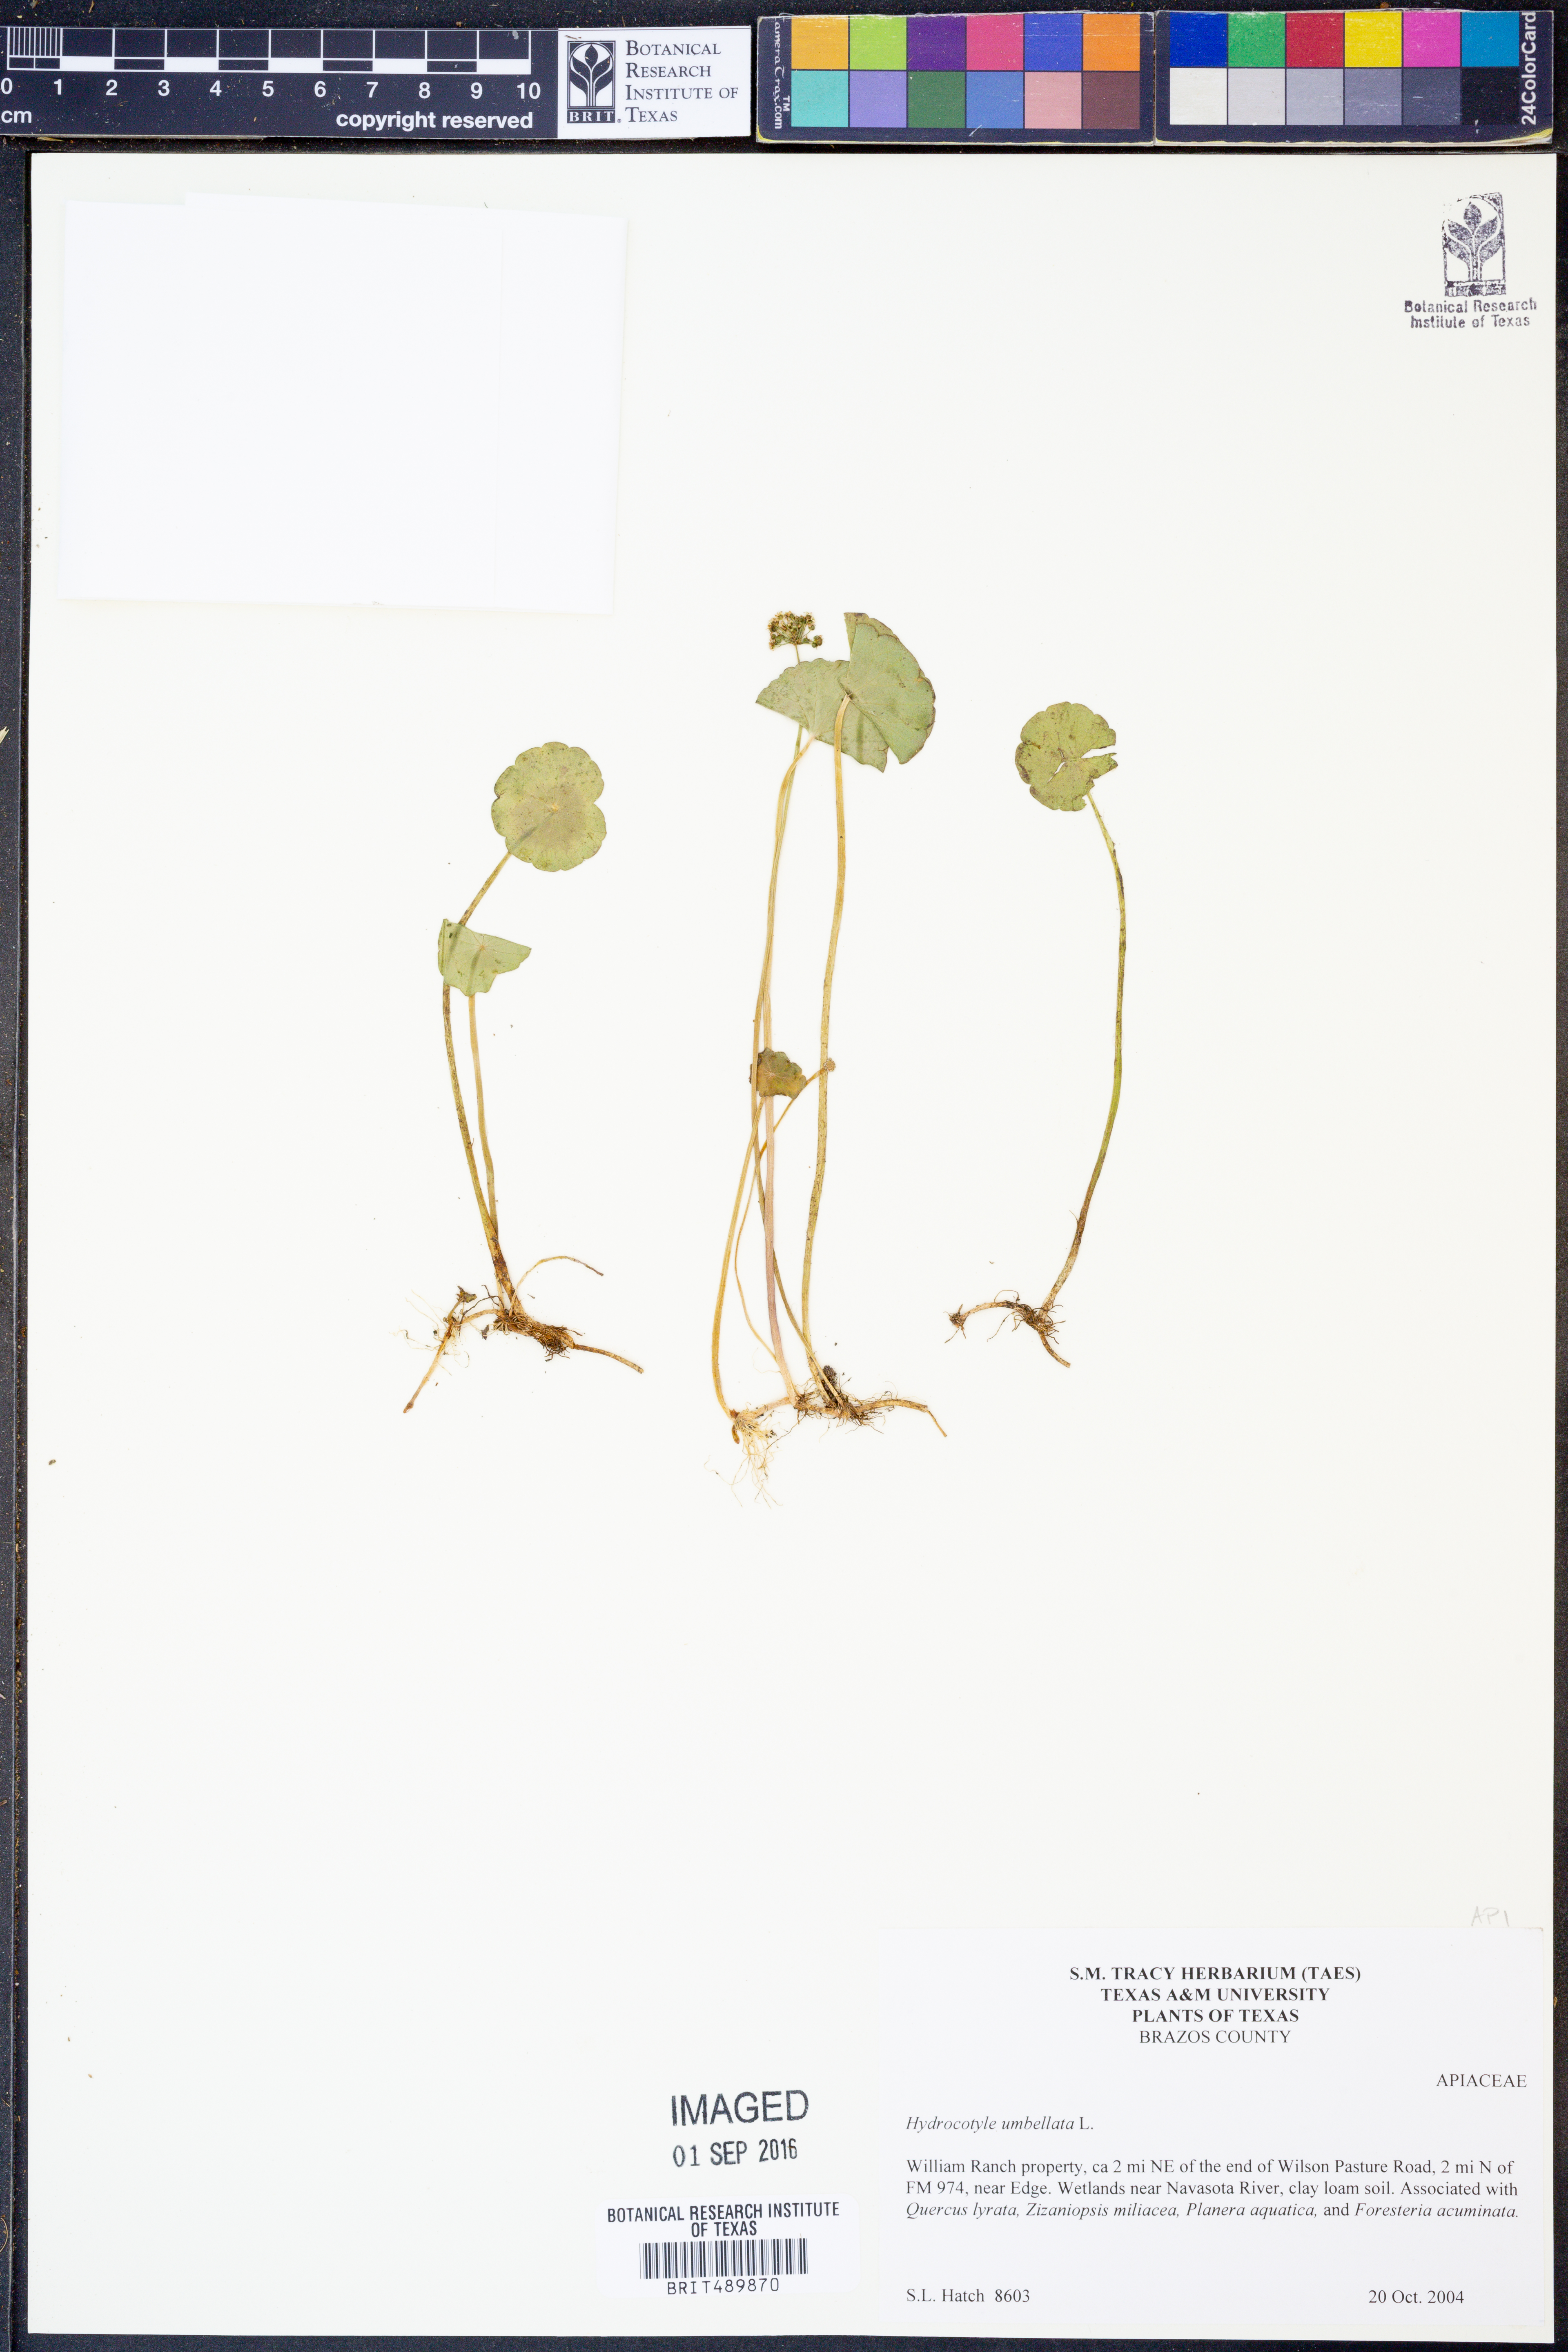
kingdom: Plantae
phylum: Tracheophyta
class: Magnoliopsida
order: Apiales
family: Araliaceae
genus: Hydrocotyle
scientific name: Hydrocotyle umbellata
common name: Water pennywort
